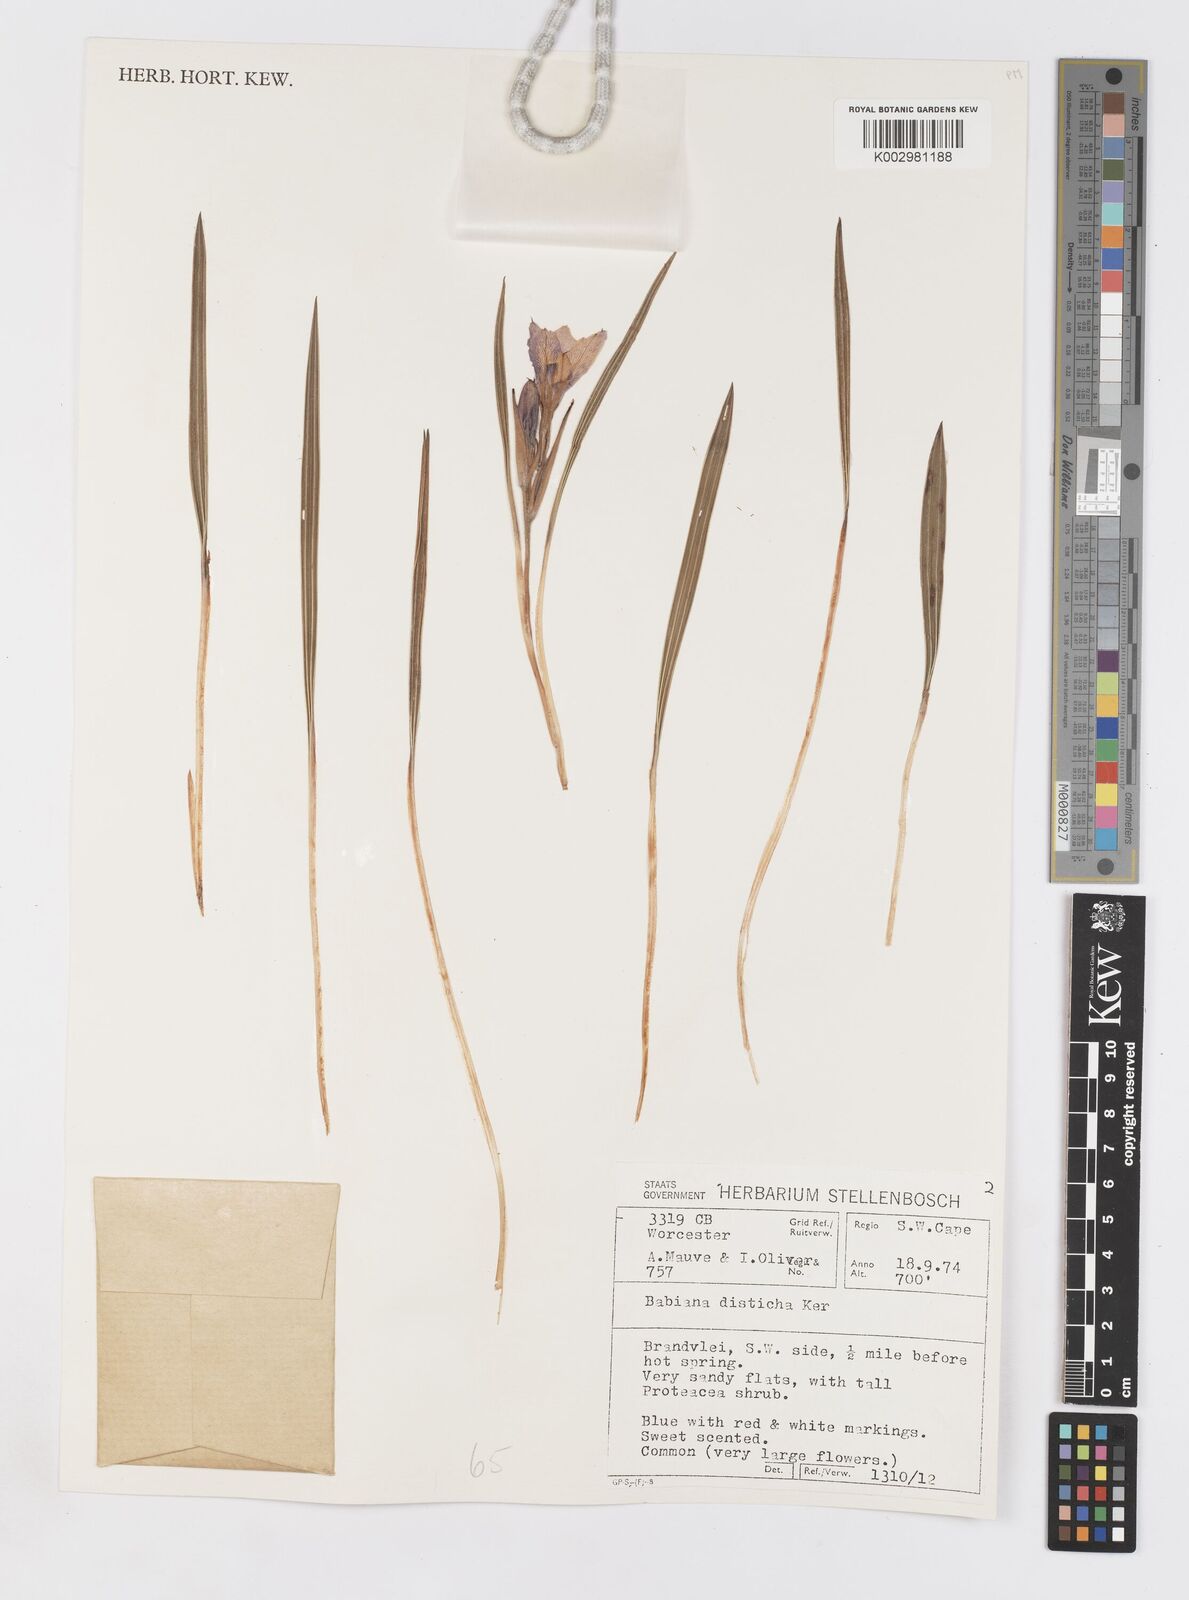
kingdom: Plantae
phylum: Tracheophyta
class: Liliopsida
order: Asparagales
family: Iridaceae
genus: Babiana
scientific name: Babiana fragrans
